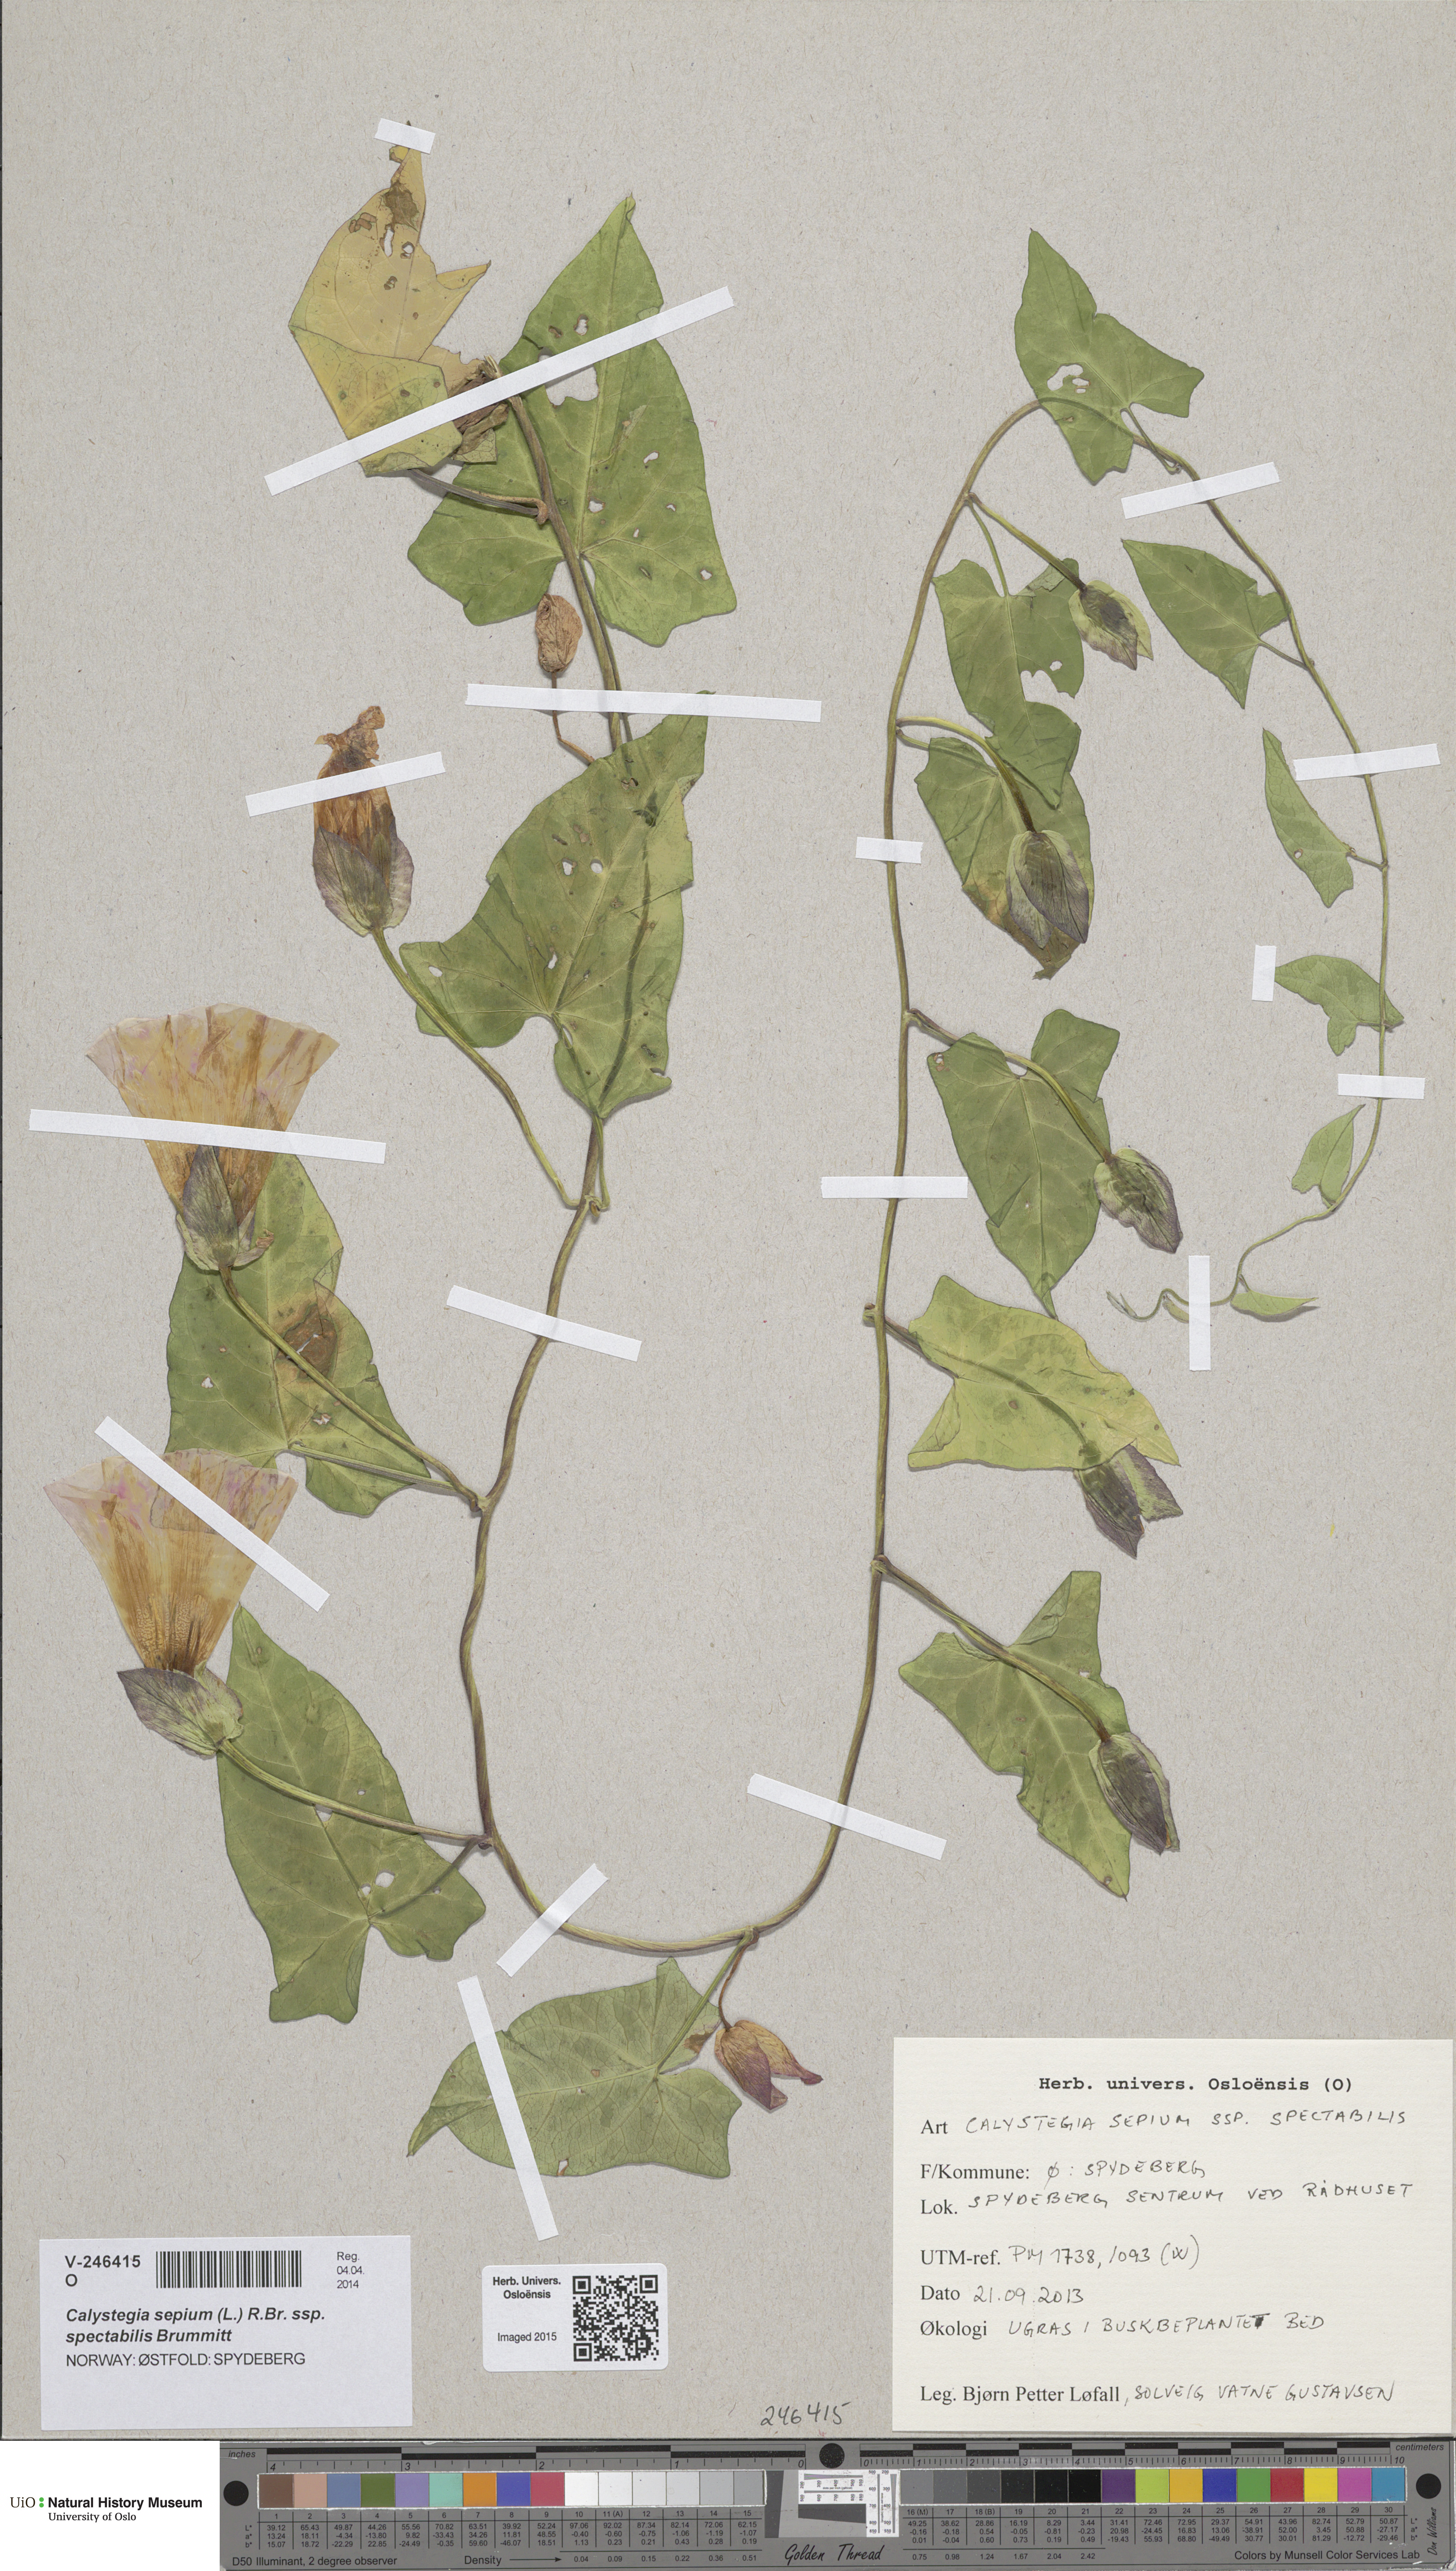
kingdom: Plantae
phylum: Tracheophyta
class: Magnoliopsida
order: Solanales
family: Convolvulaceae
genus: Calystegia
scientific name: Calystegia sepium
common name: Hedge bindweed
